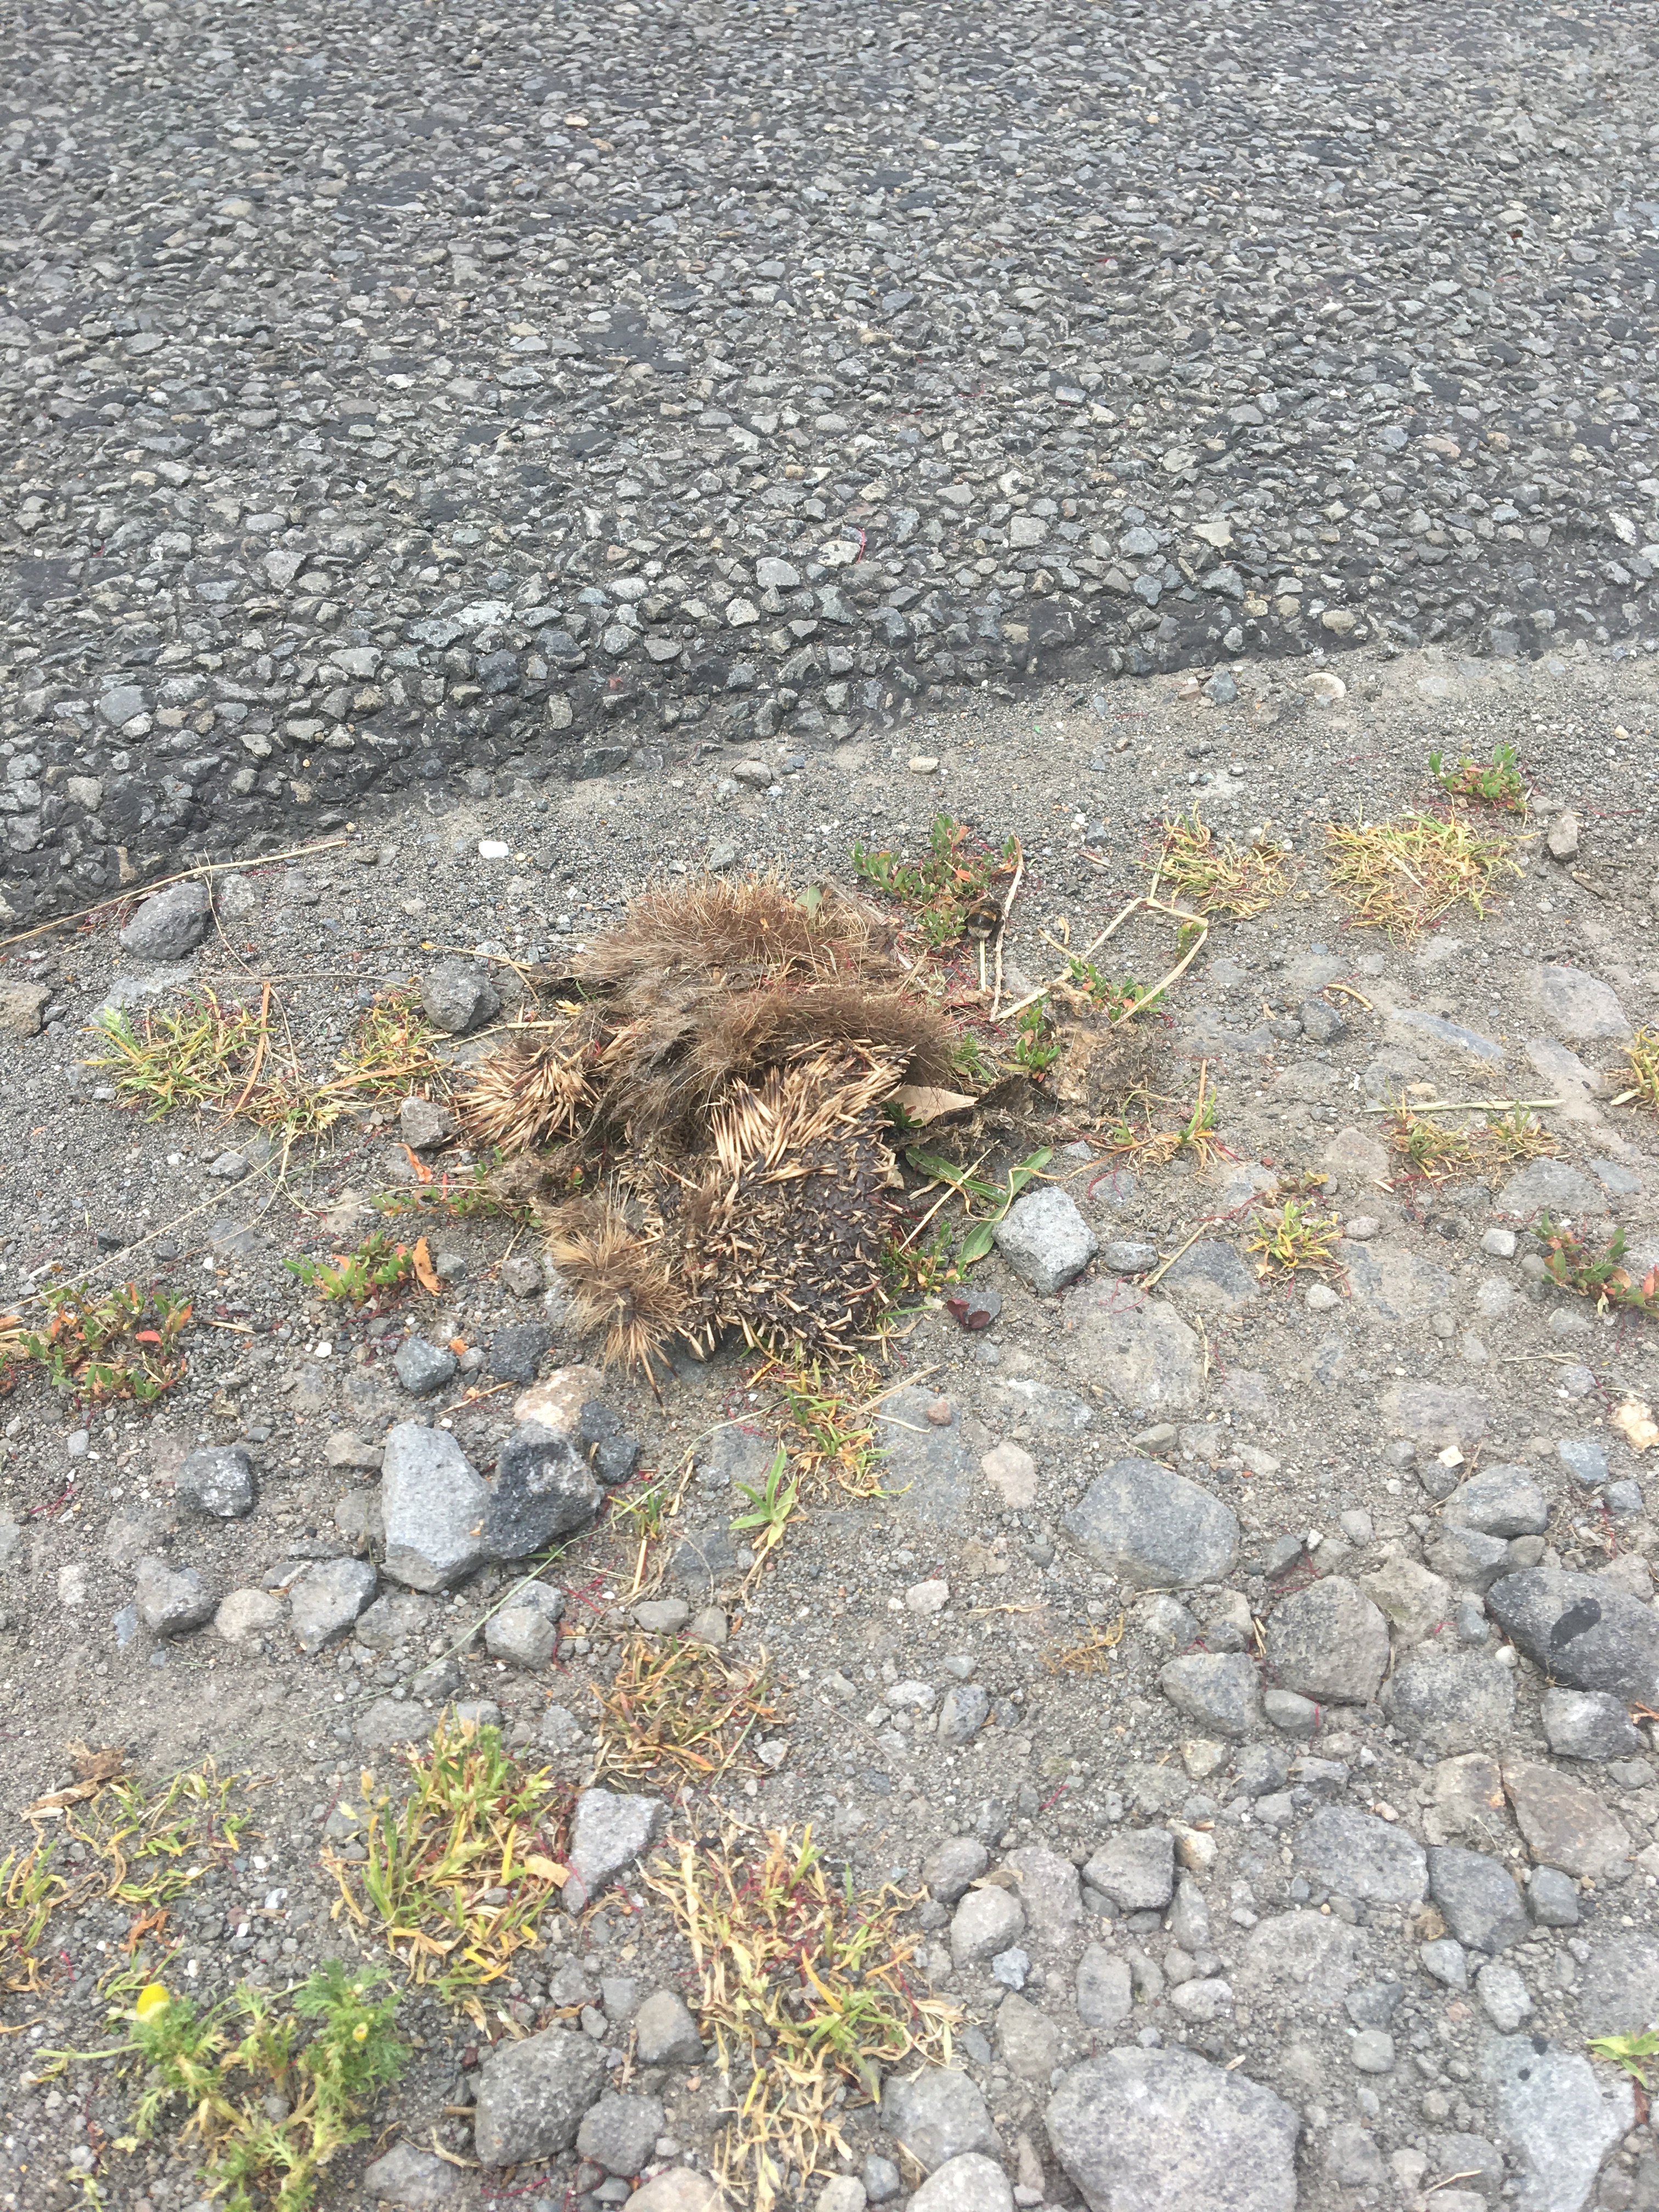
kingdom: Animalia
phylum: Chordata
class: Mammalia
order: Erinaceomorpha
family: Erinaceidae
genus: Erinaceus
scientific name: Erinaceus
